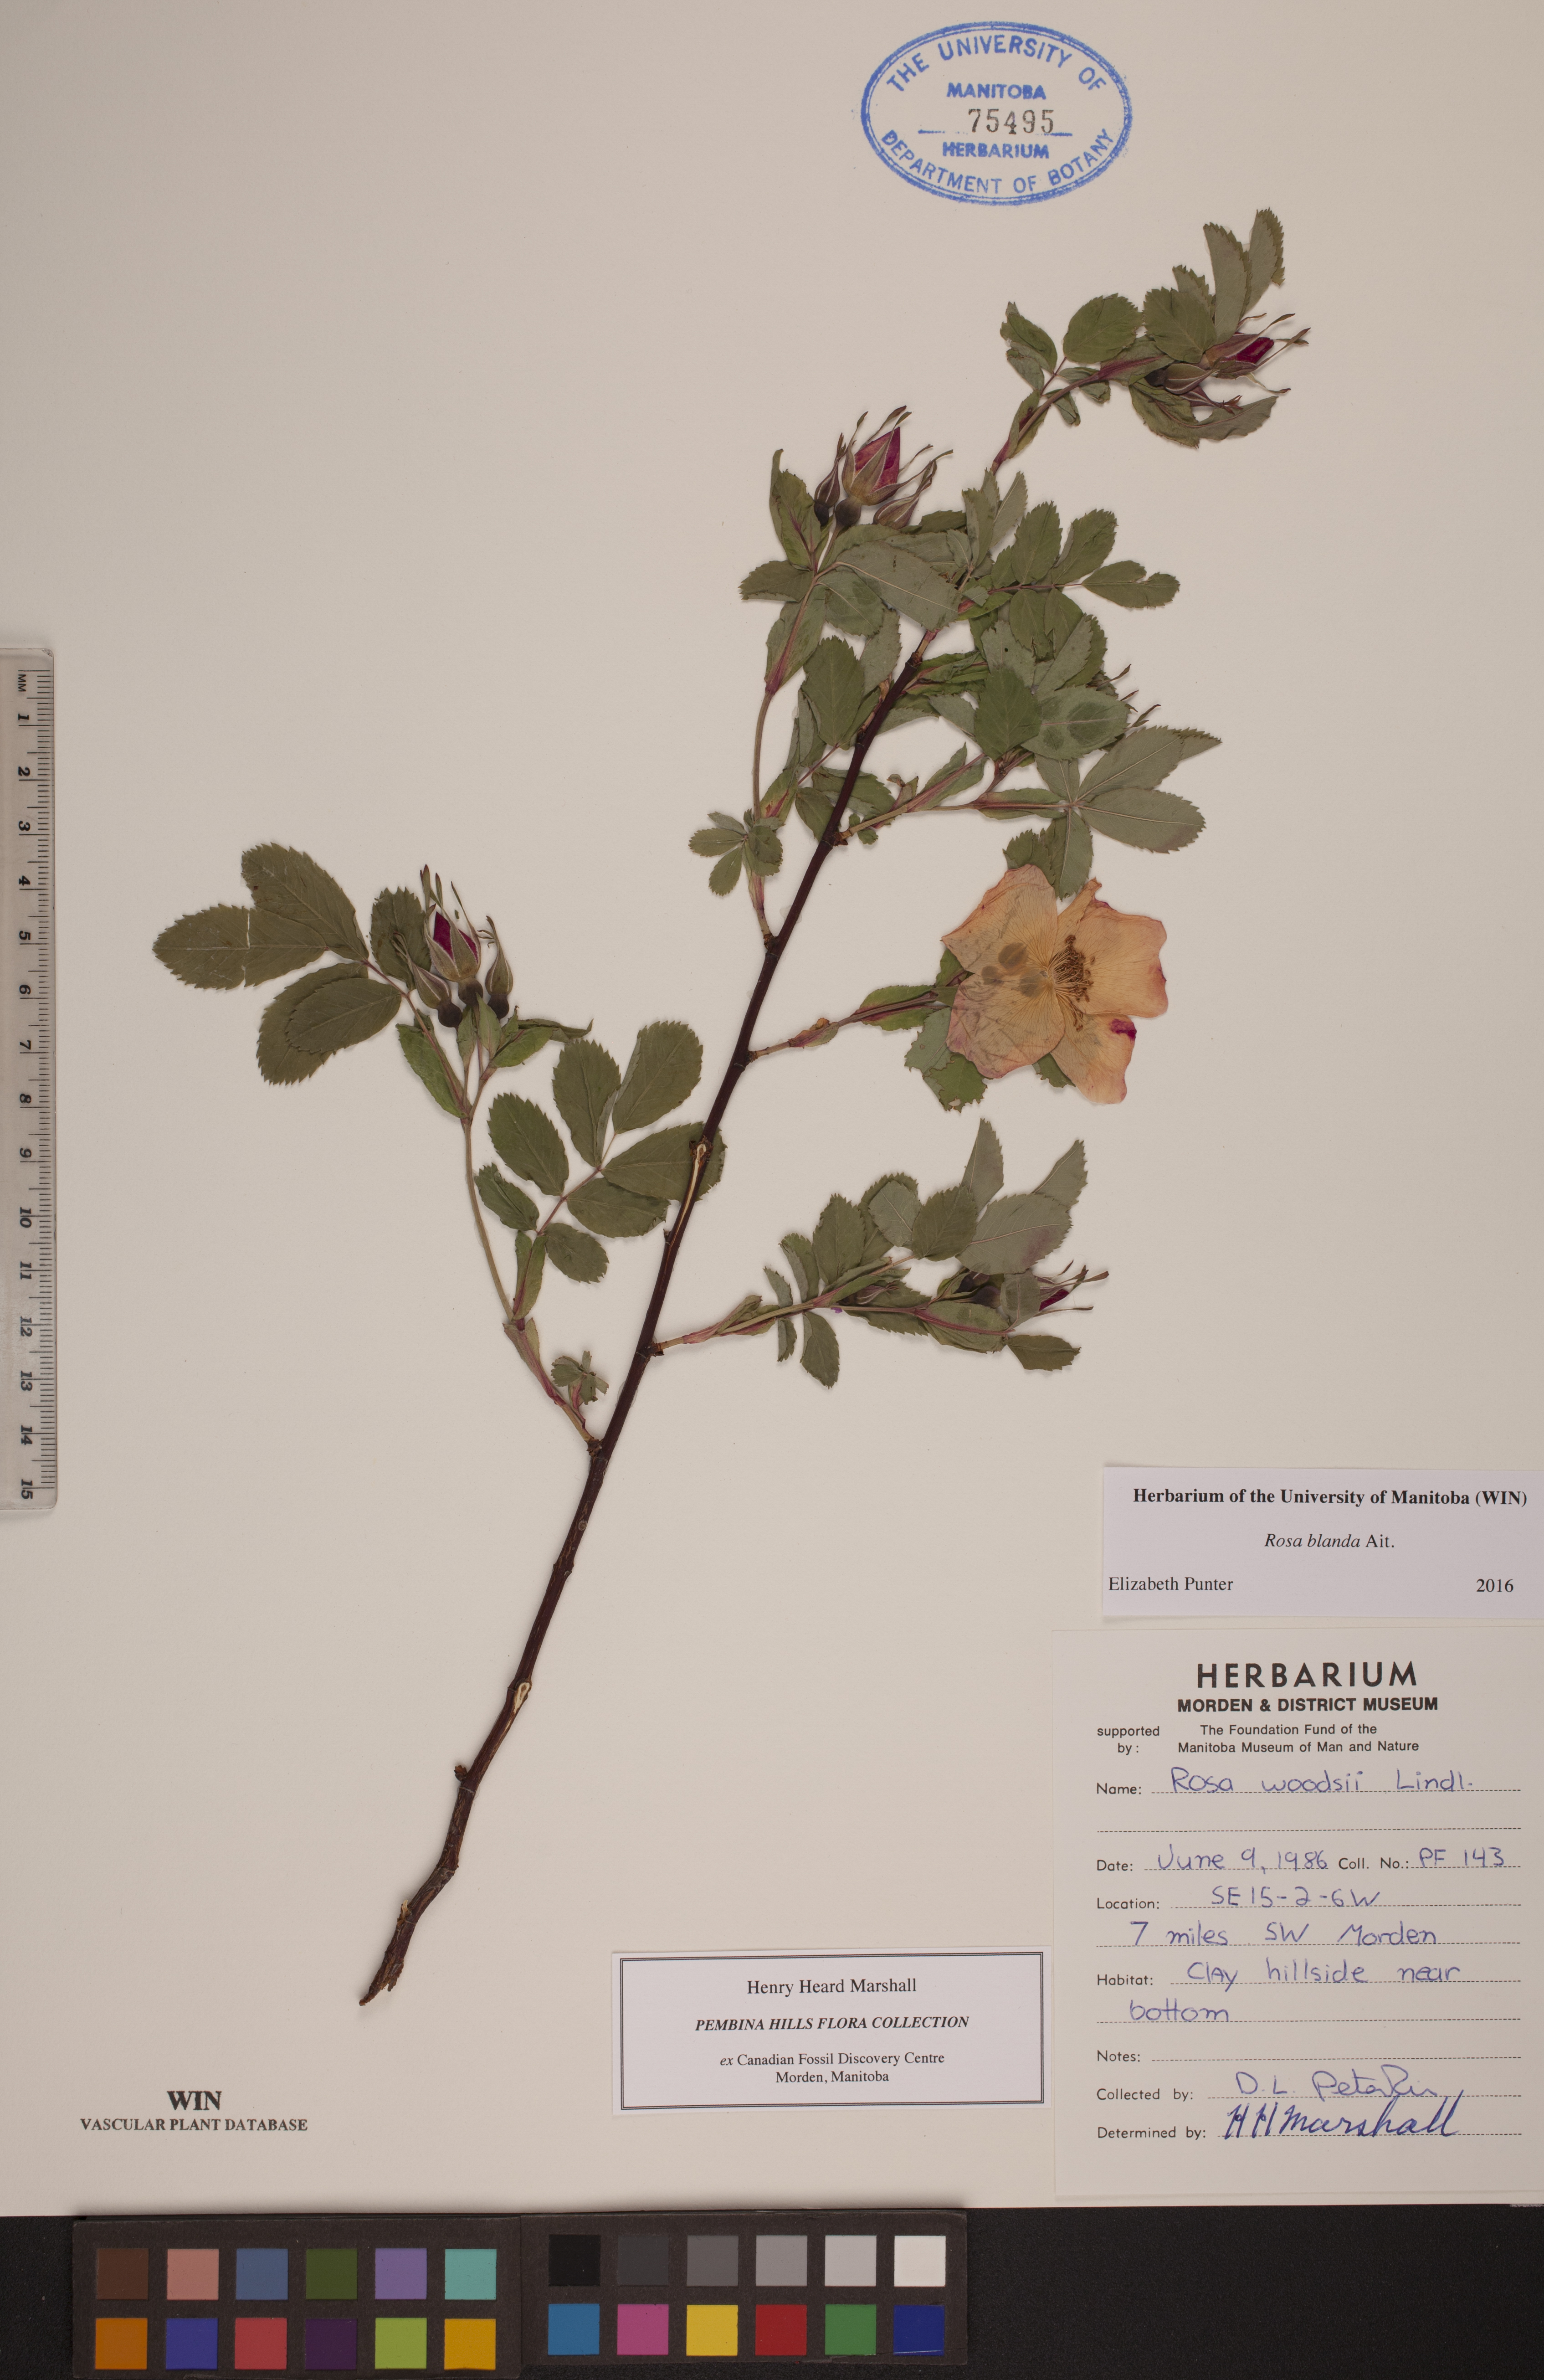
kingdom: Plantae
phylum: Tracheophyta
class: Magnoliopsida
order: Rosales
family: Rosaceae
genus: Rosa
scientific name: Rosa blanda
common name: Smooth rose
